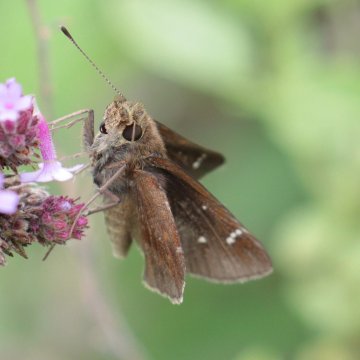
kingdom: Animalia
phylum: Arthropoda
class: Insecta
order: Lepidoptera
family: Hesperiidae
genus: Lerema
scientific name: Lerema accius
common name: Clouded Skipper
